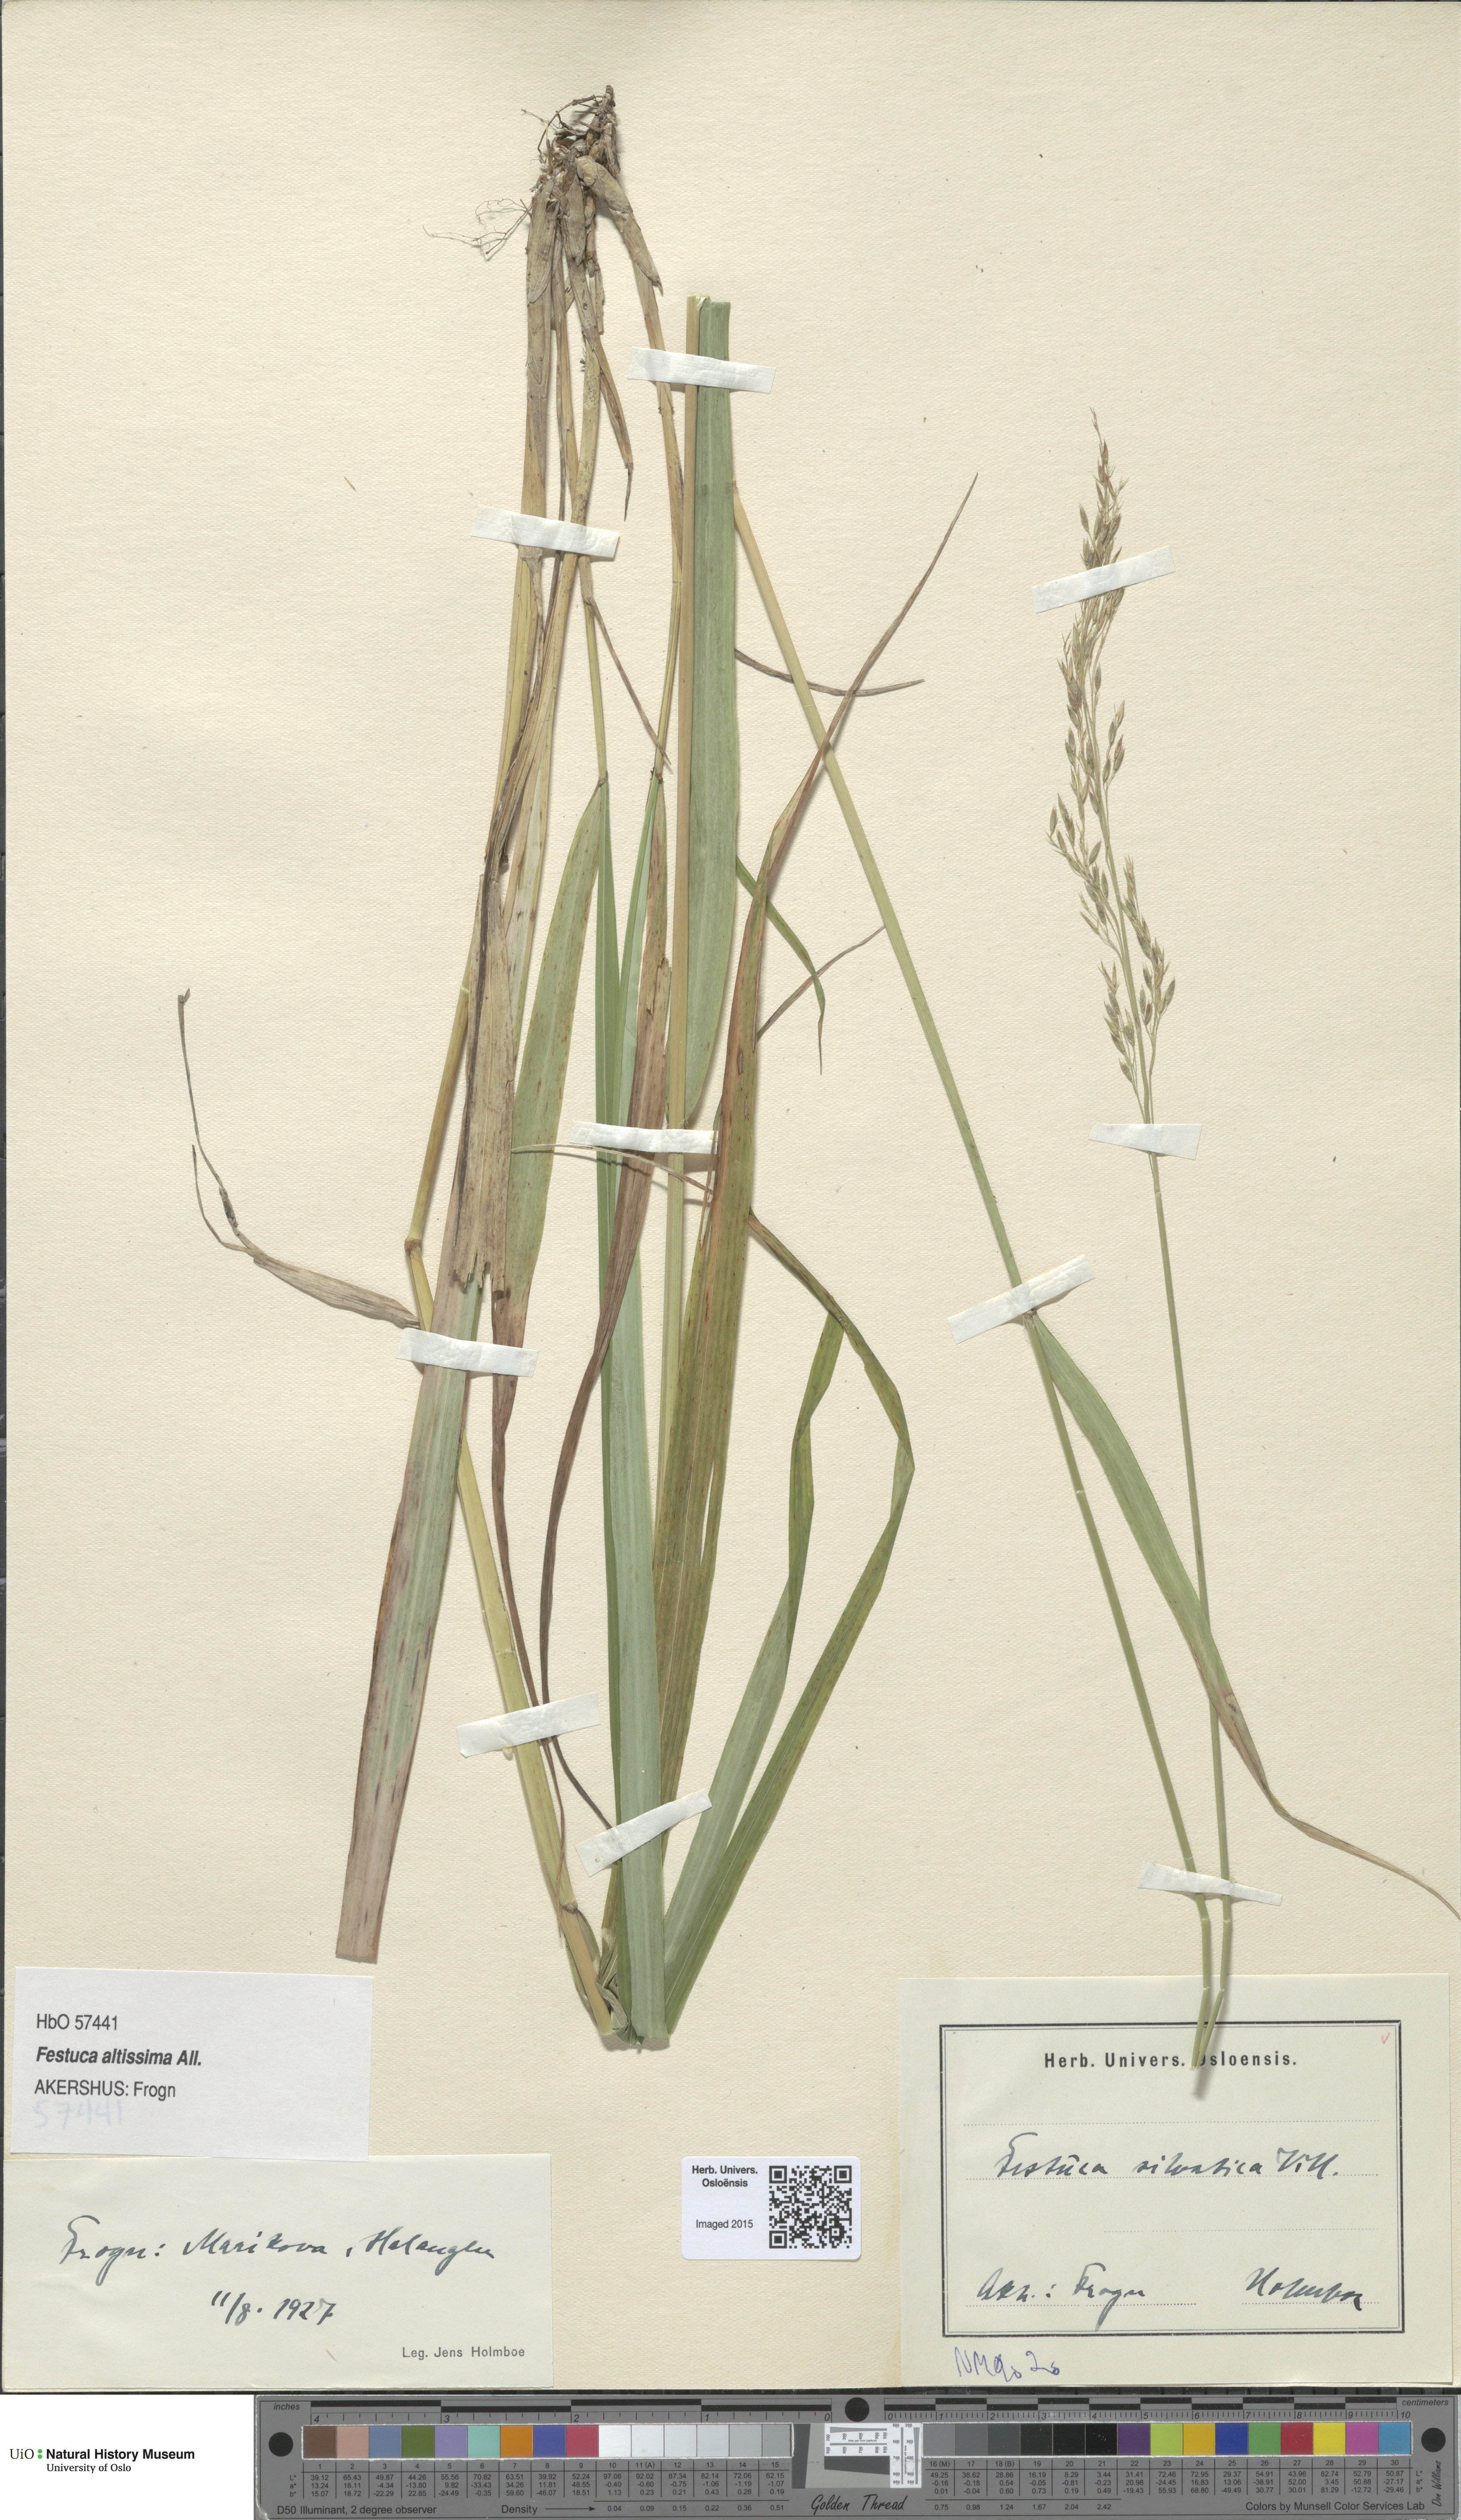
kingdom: Plantae
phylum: Tracheophyta
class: Liliopsida
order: Poales
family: Poaceae
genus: Festuca
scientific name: Festuca altissima
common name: Wood fescue
